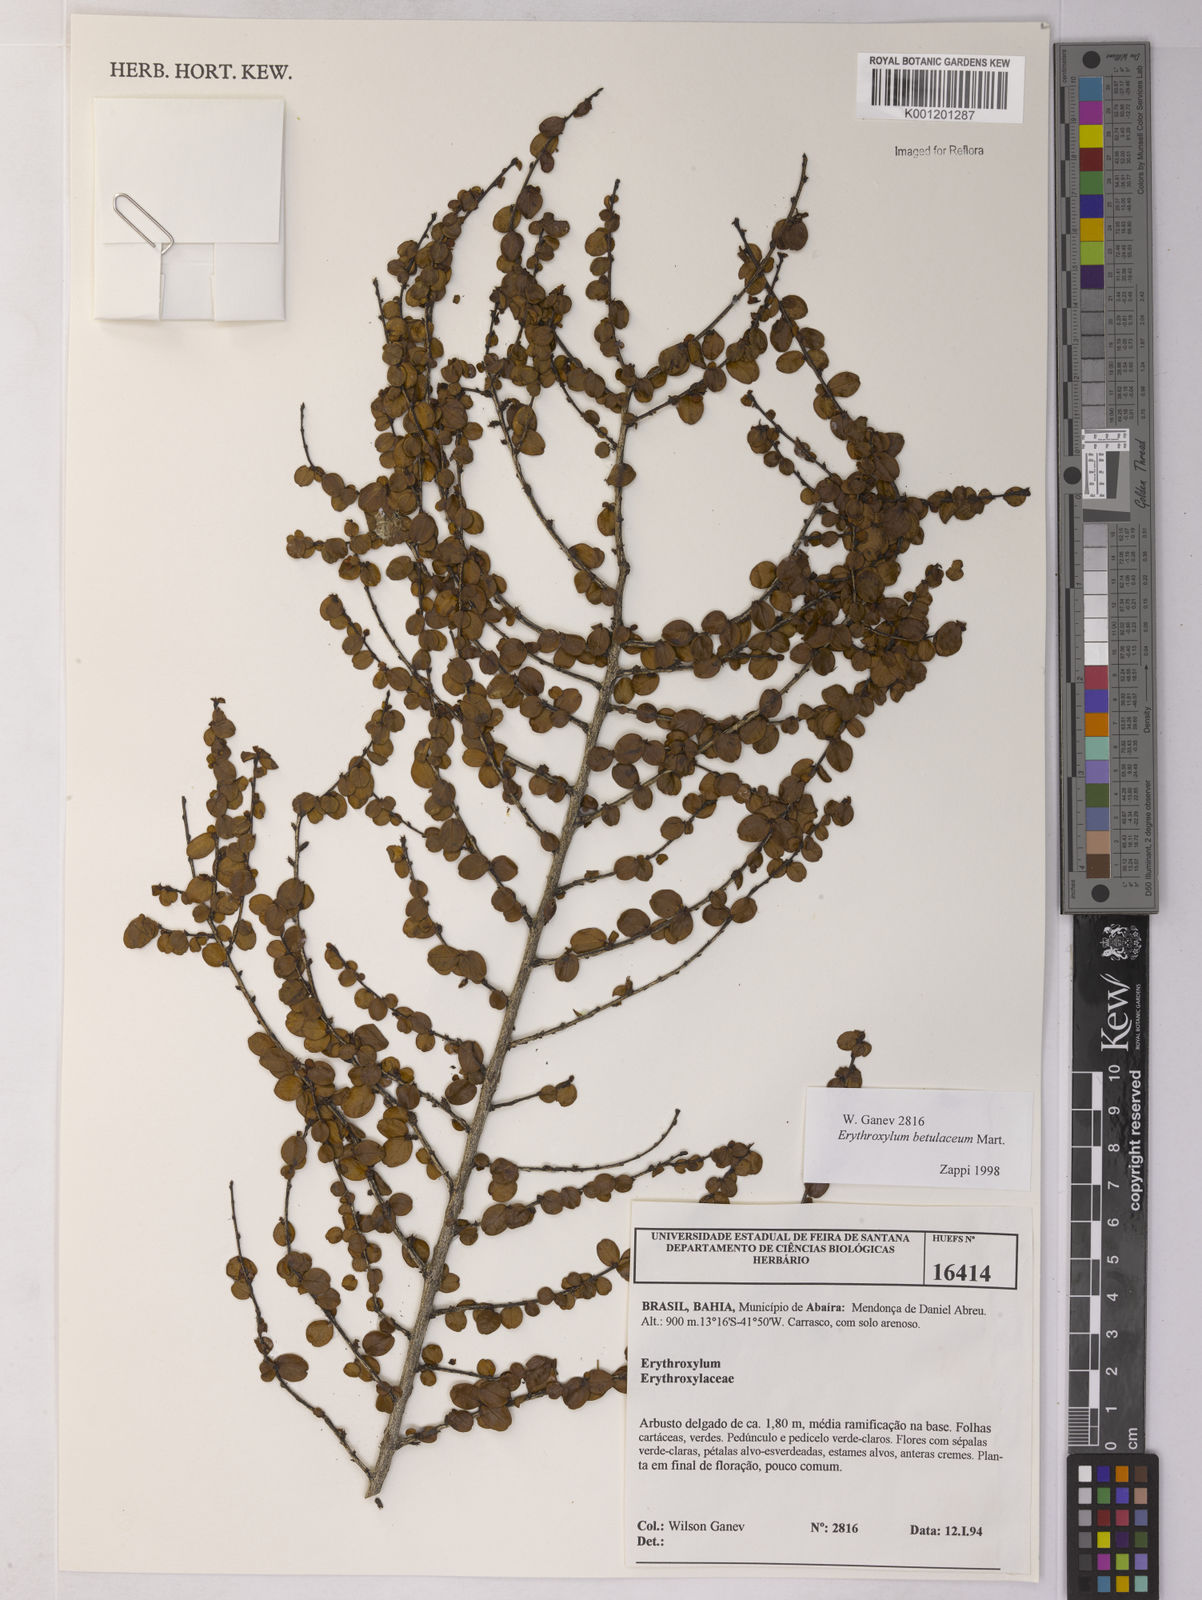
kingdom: Plantae
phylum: Tracheophyta
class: Magnoliopsida
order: Malpighiales
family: Erythroxylaceae
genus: Erythroxylum
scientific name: Erythroxylum betulaceum
